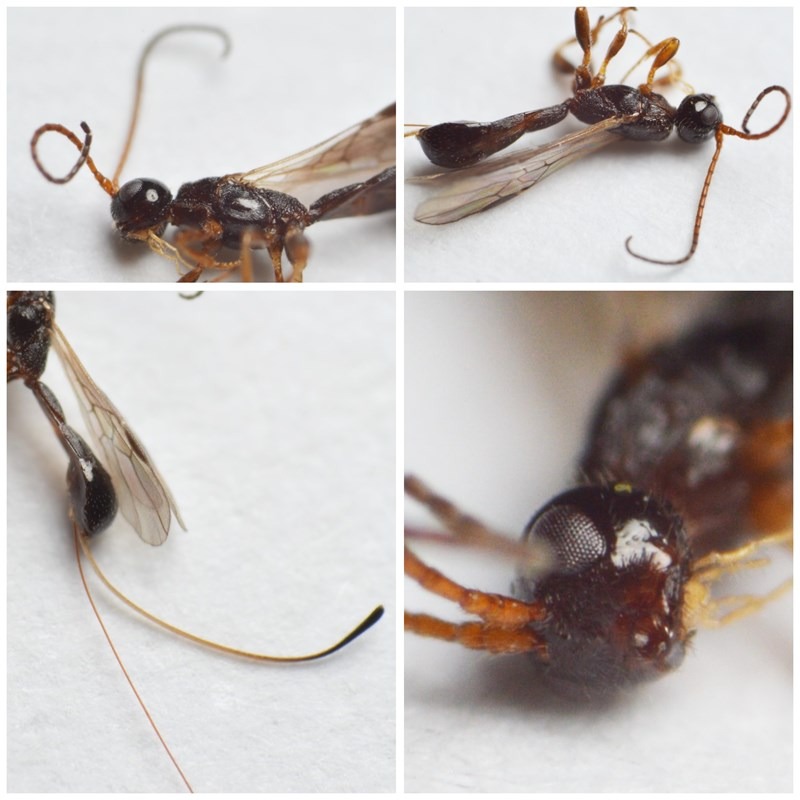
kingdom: Animalia
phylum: Arthropoda
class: Insecta
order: Hymenoptera
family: Braconidae
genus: Hecabolus
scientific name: Hecabolus sulcatus
